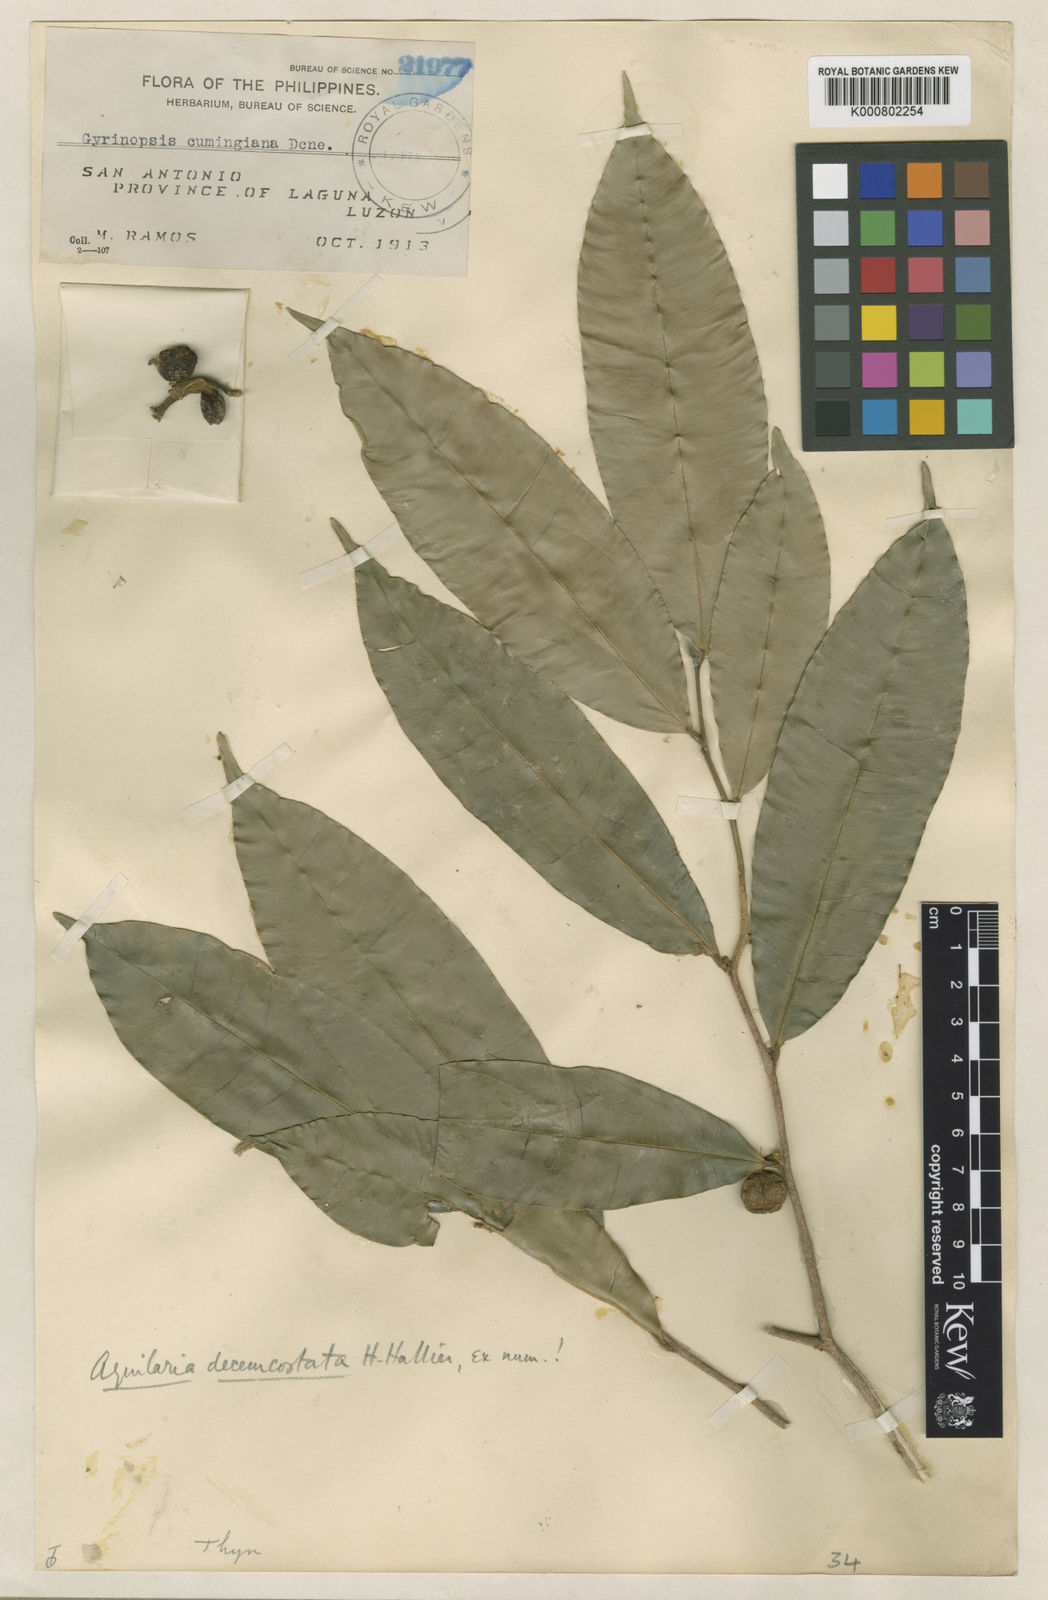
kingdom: Plantae
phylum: Tracheophyta
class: Magnoliopsida
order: Malvales
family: Thymelaeaceae
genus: Aquilaria
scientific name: Aquilaria cumingiana
